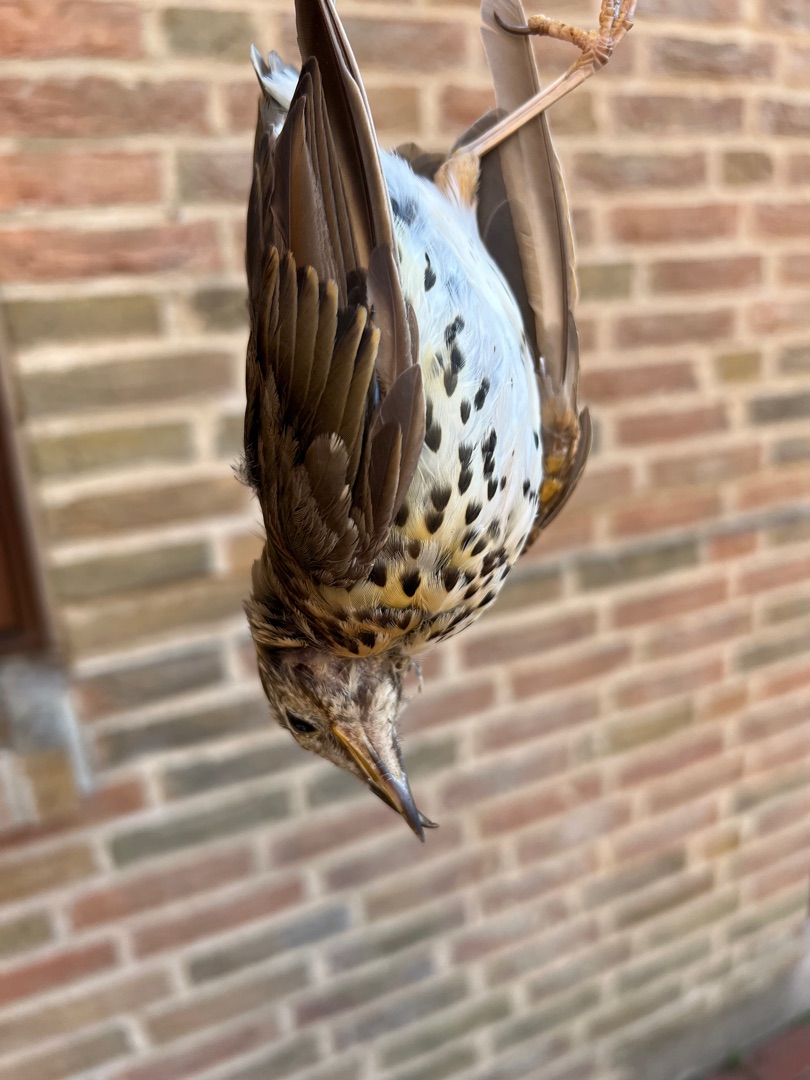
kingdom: Animalia
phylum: Chordata
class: Aves
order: Passeriformes
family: Turdidae
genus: Turdus
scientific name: Turdus philomelos
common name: Sangdrossel
